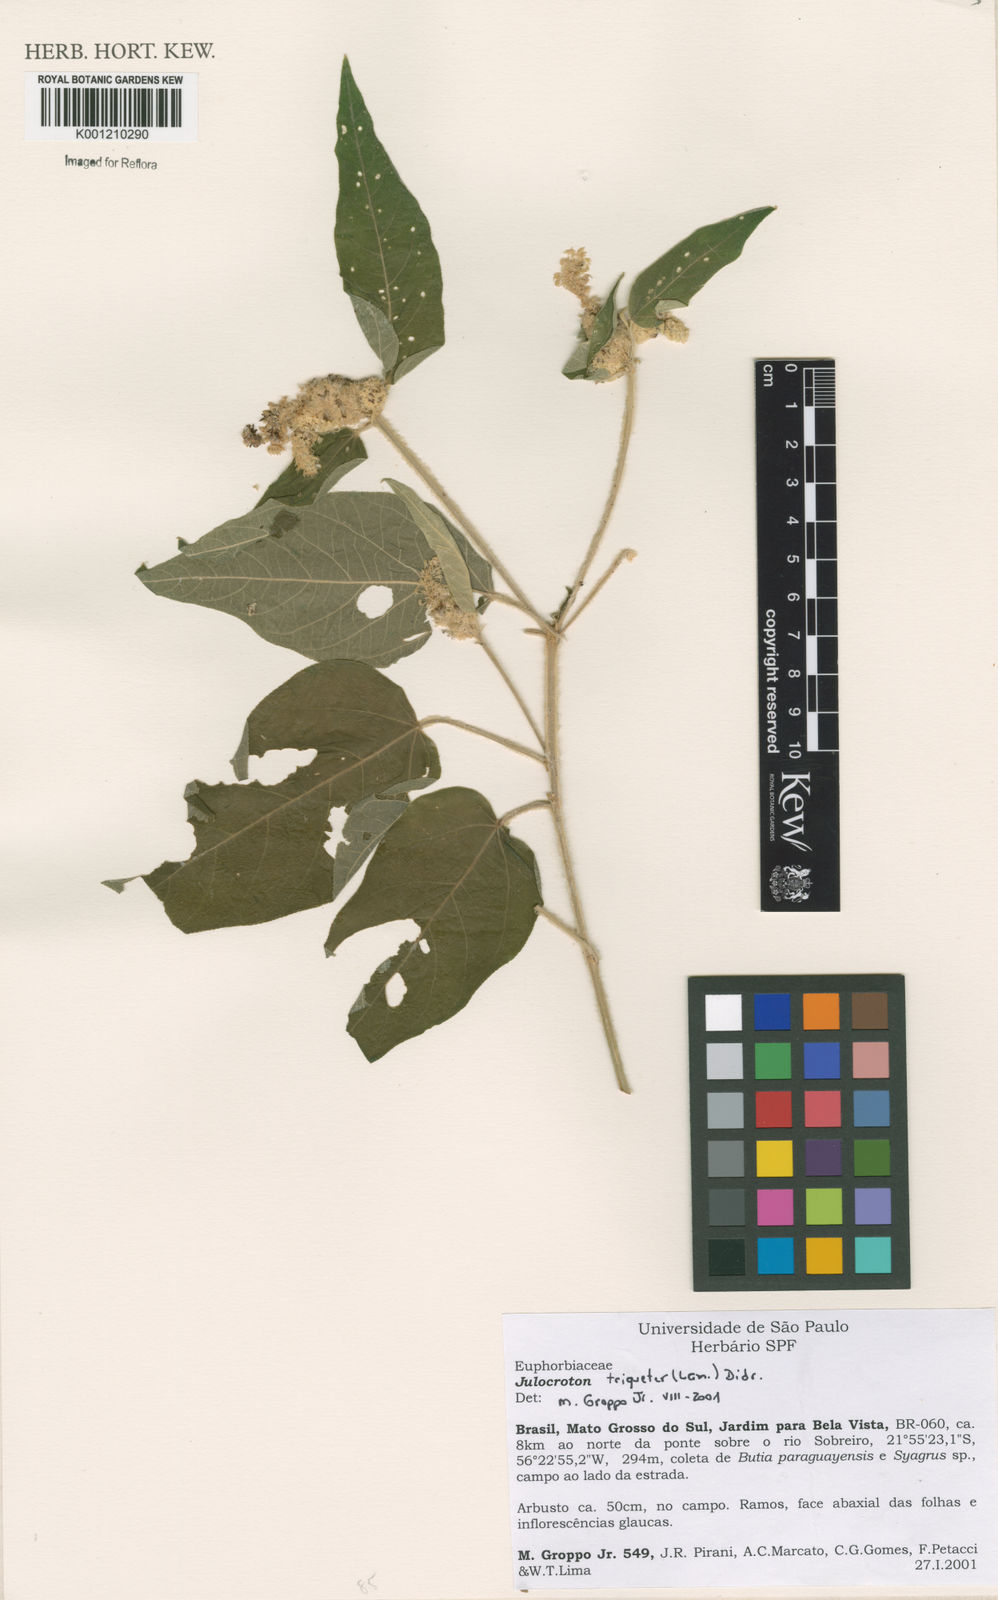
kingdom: Plantae
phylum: Tracheophyta
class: Magnoliopsida
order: Malpighiales
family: Euphorbiaceae
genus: Croton
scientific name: Croton triqueter
